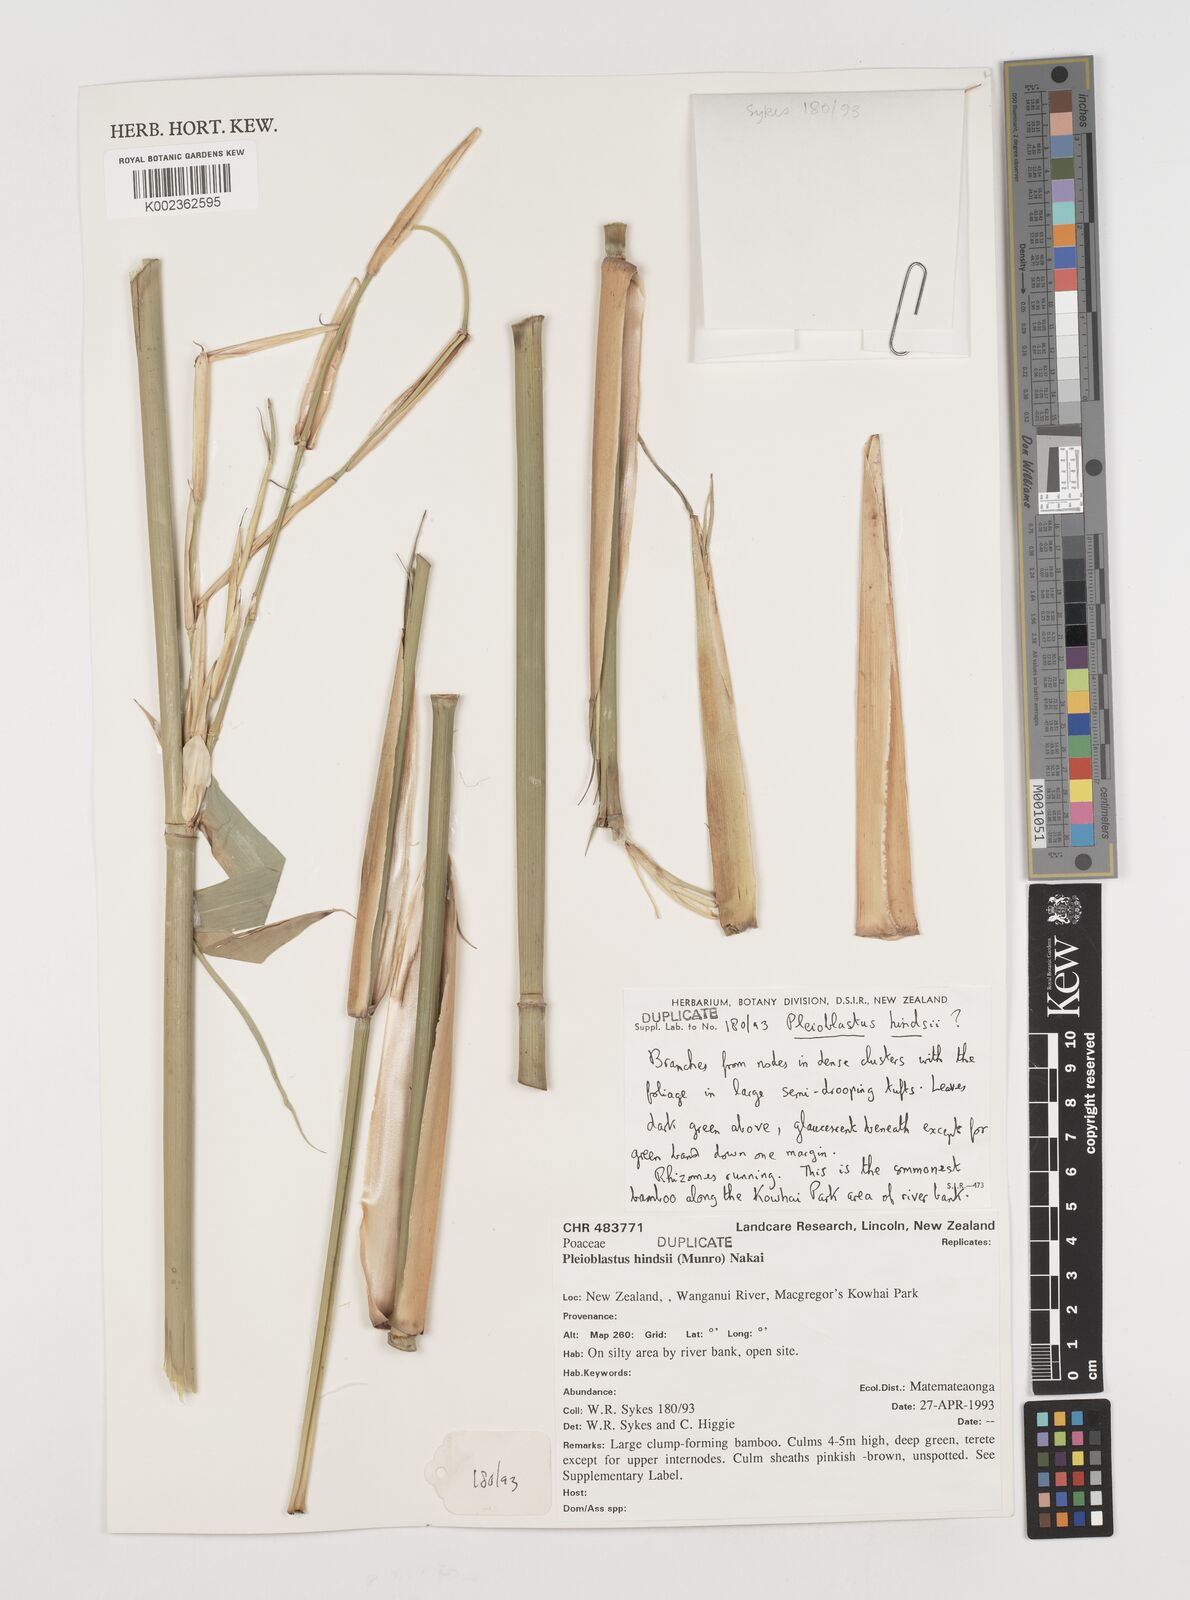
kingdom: Plantae
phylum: Tracheophyta
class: Liliopsida
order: Poales
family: Poaceae
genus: Pseudosasa
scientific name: Pseudosasa hindsii
